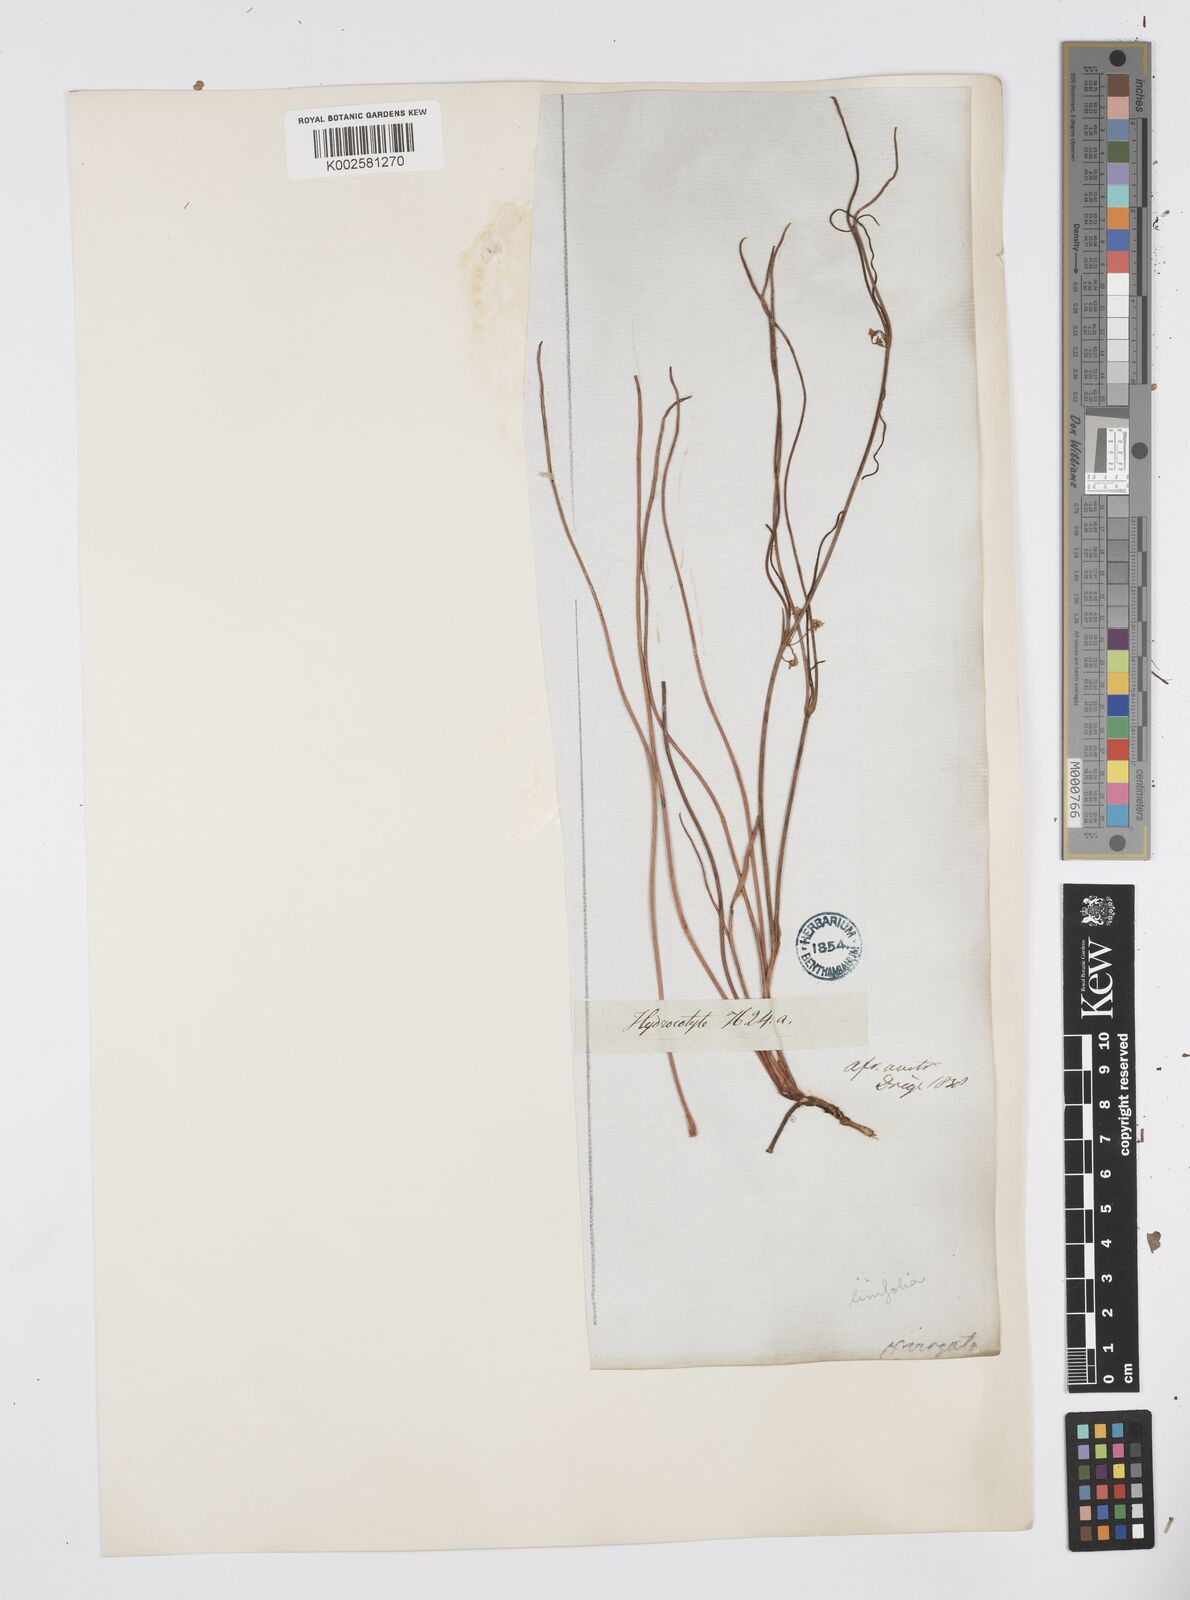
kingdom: Plantae
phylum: Tracheophyta
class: Magnoliopsida
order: Apiales
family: Apiaceae
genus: Centella
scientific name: Centella linifolia
